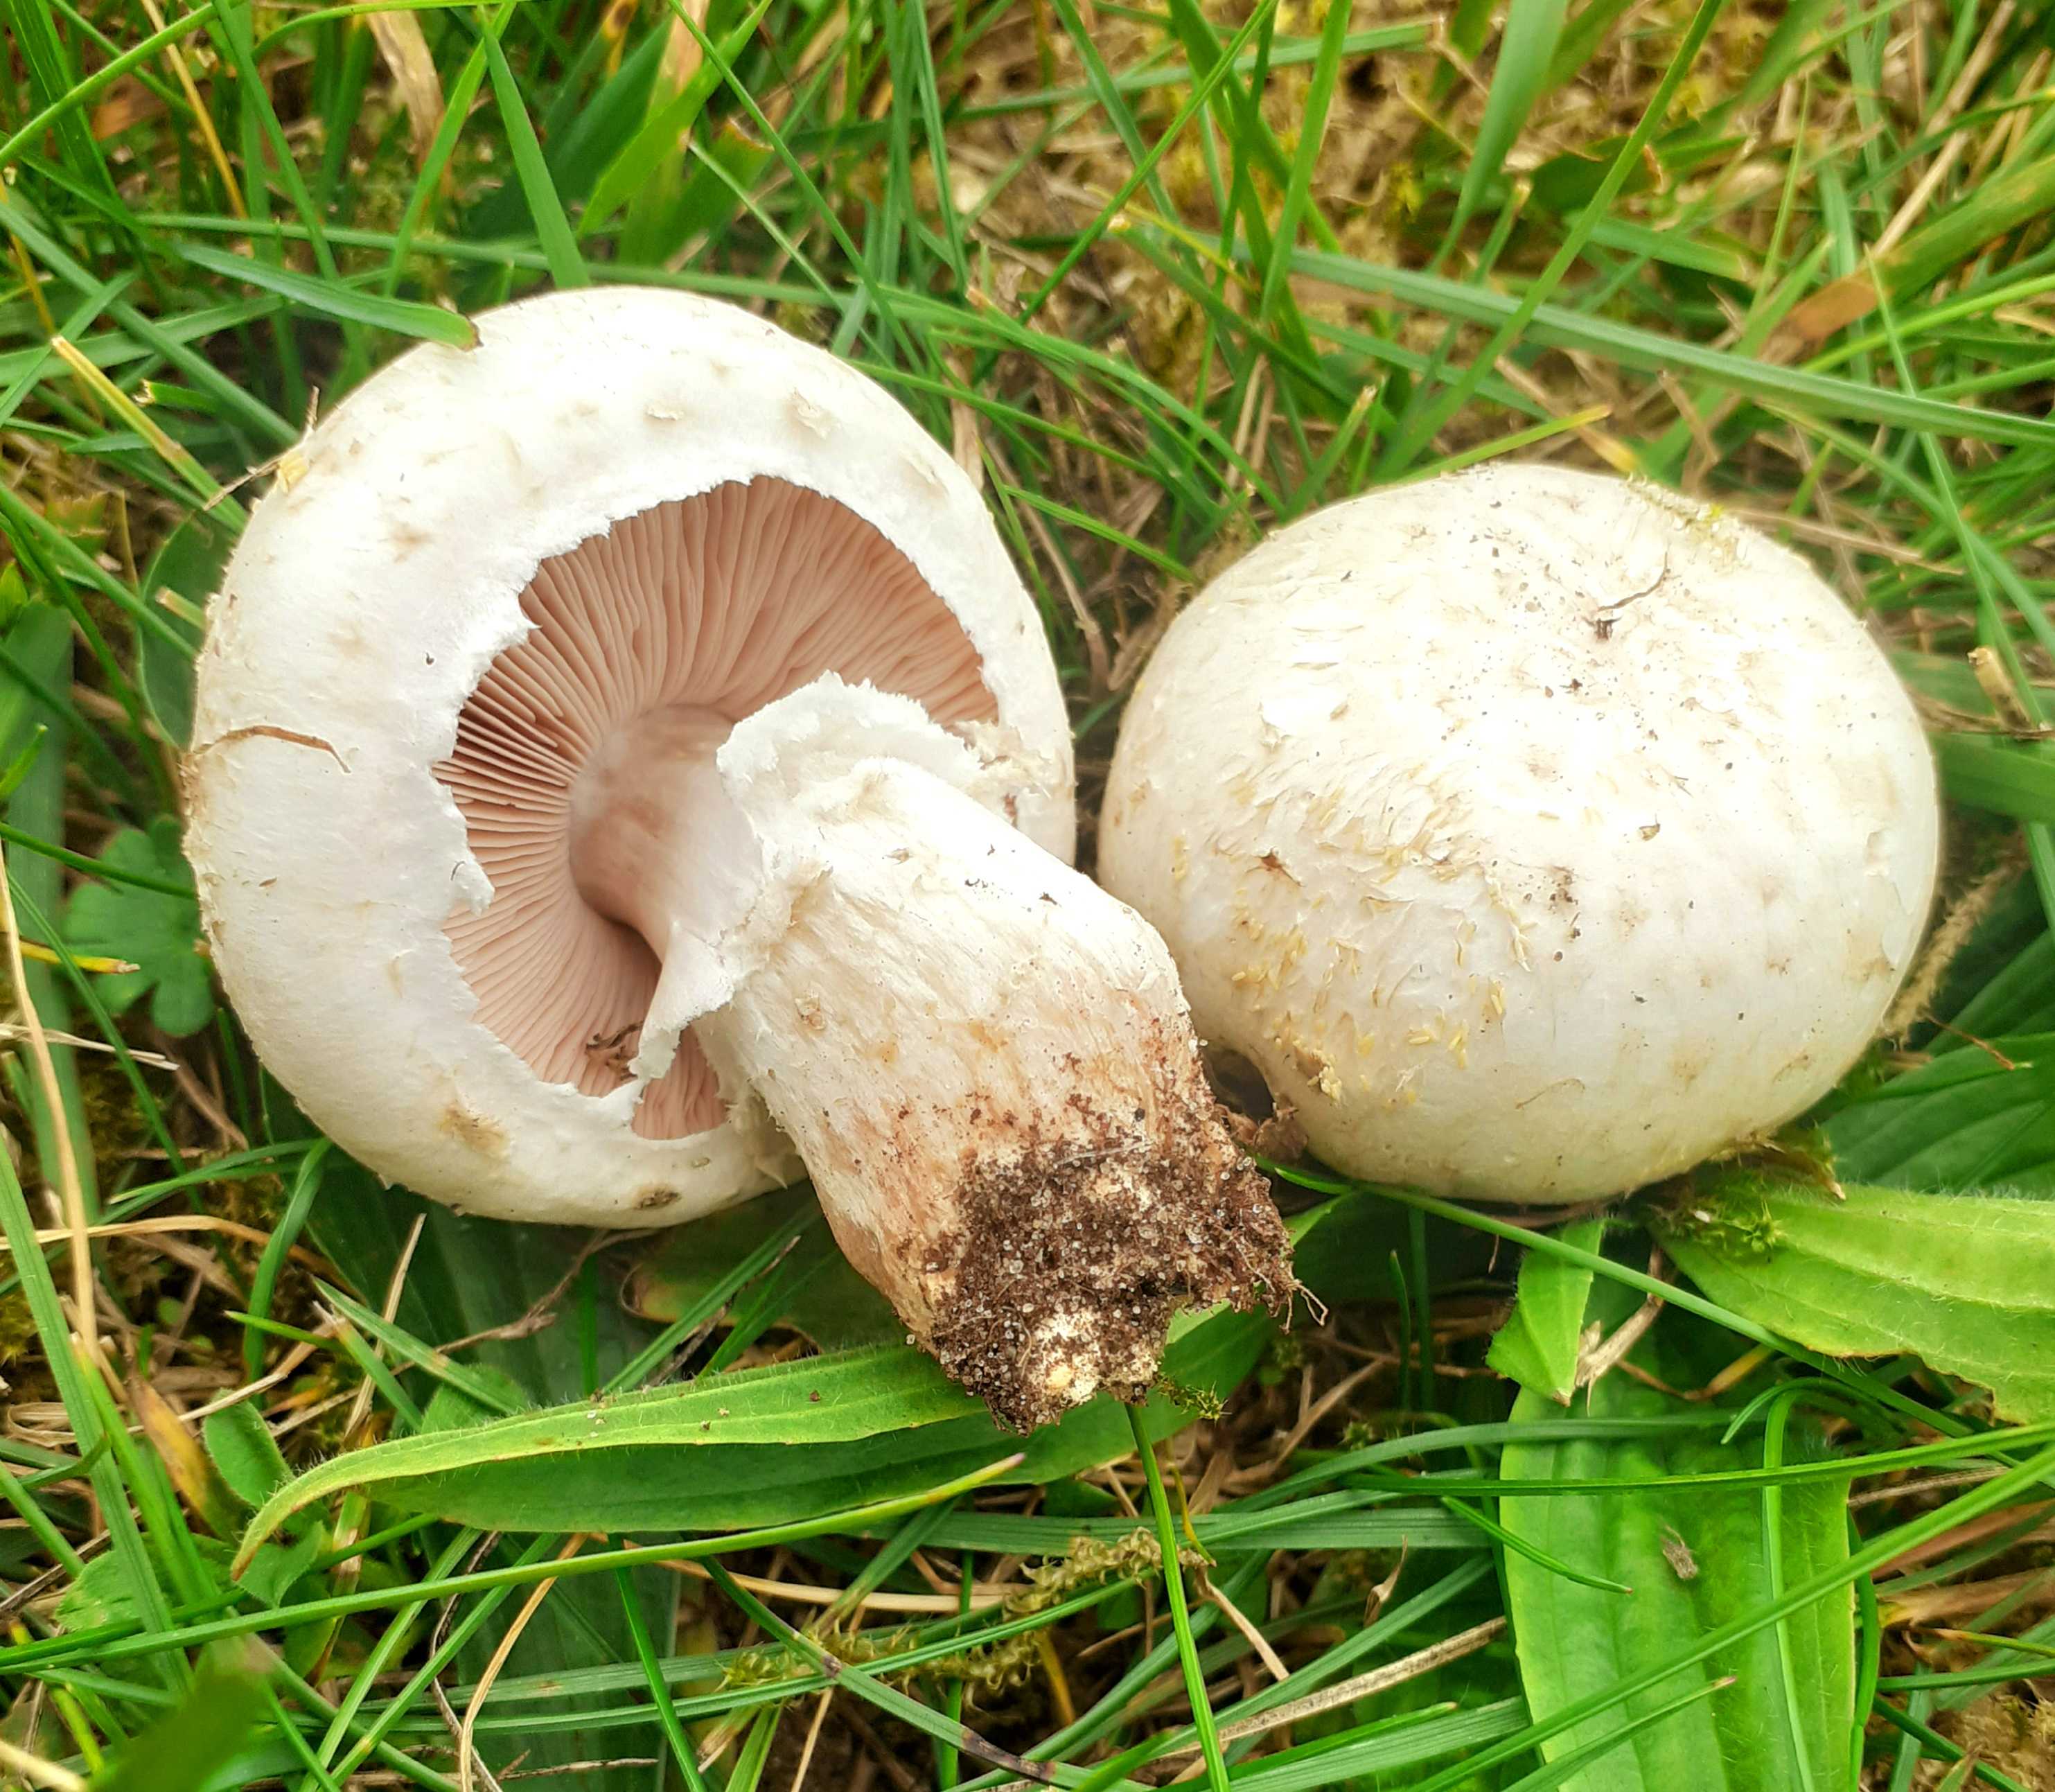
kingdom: Fungi
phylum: Basidiomycota
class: Agaricomycetes
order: Agaricales
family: Agaricaceae
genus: Agaricus
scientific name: Agaricus campestris
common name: mark-champignon
